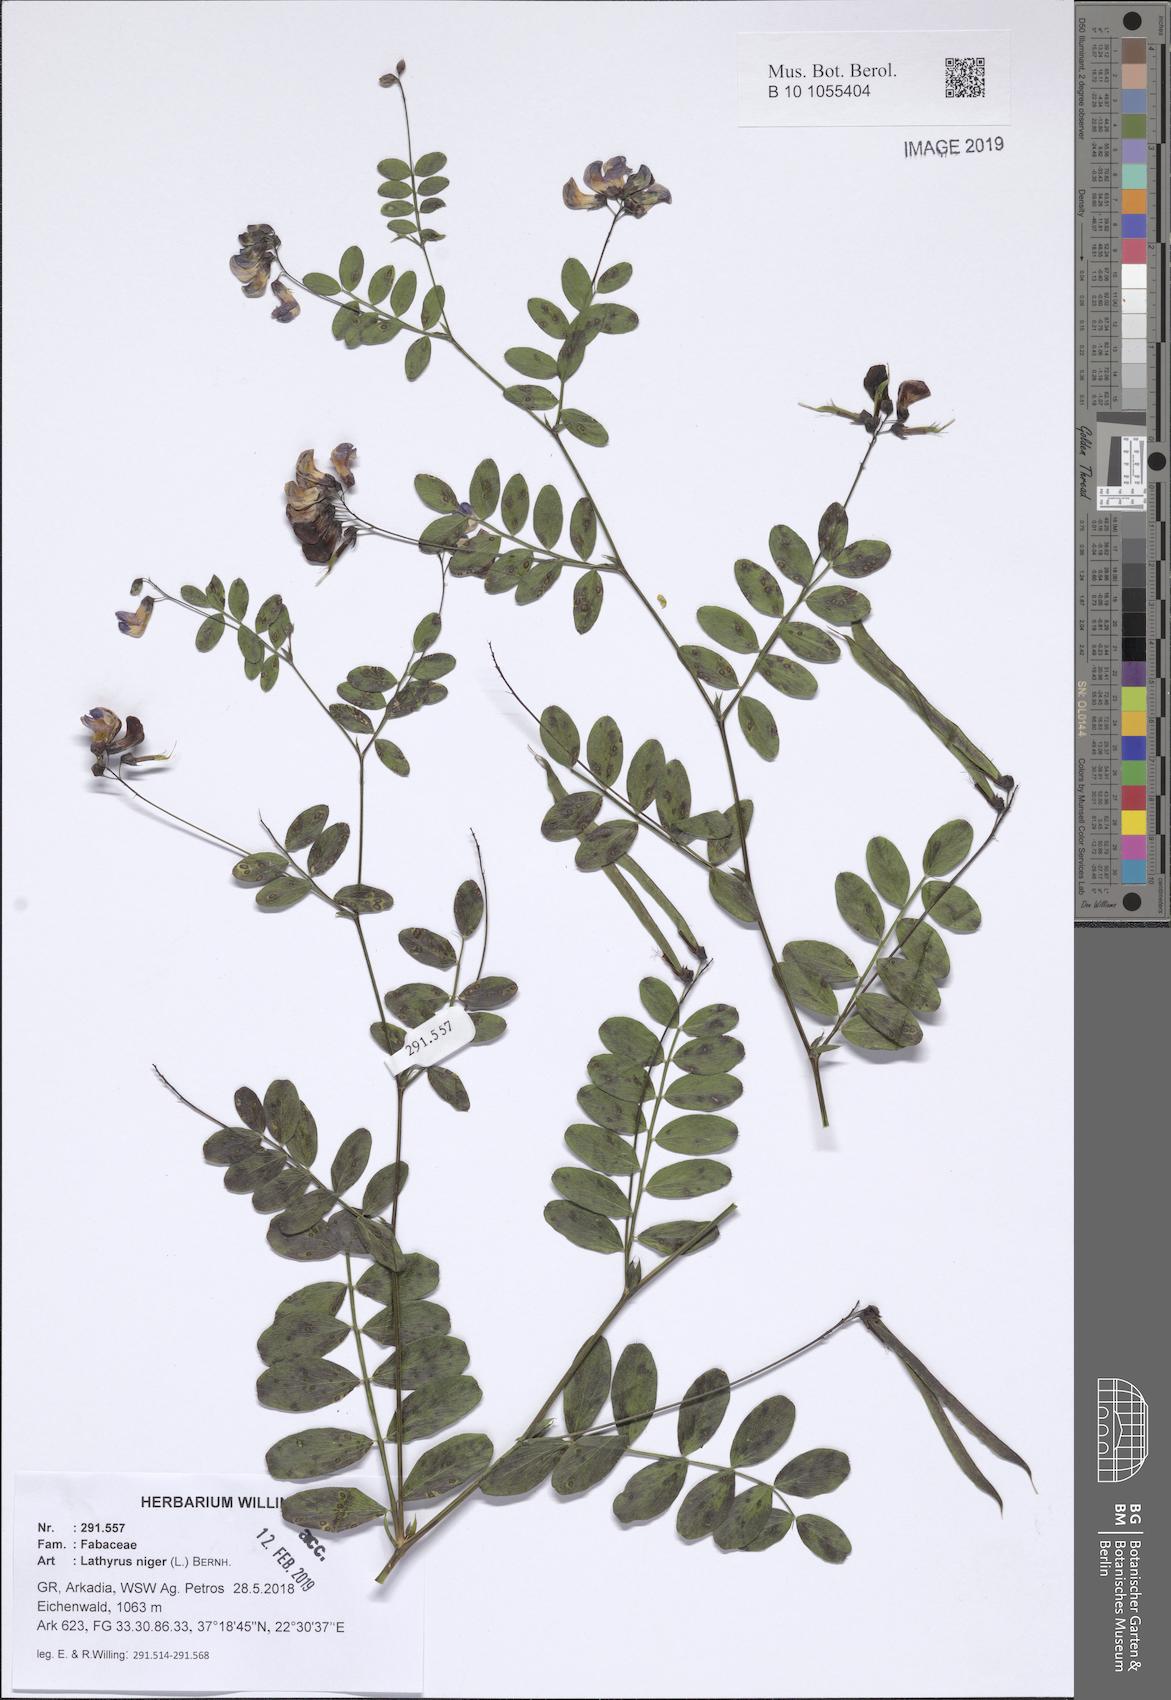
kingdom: Plantae
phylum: Tracheophyta
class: Magnoliopsida
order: Fabales
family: Fabaceae
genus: Lathyrus
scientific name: Lathyrus niger
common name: Black pea
